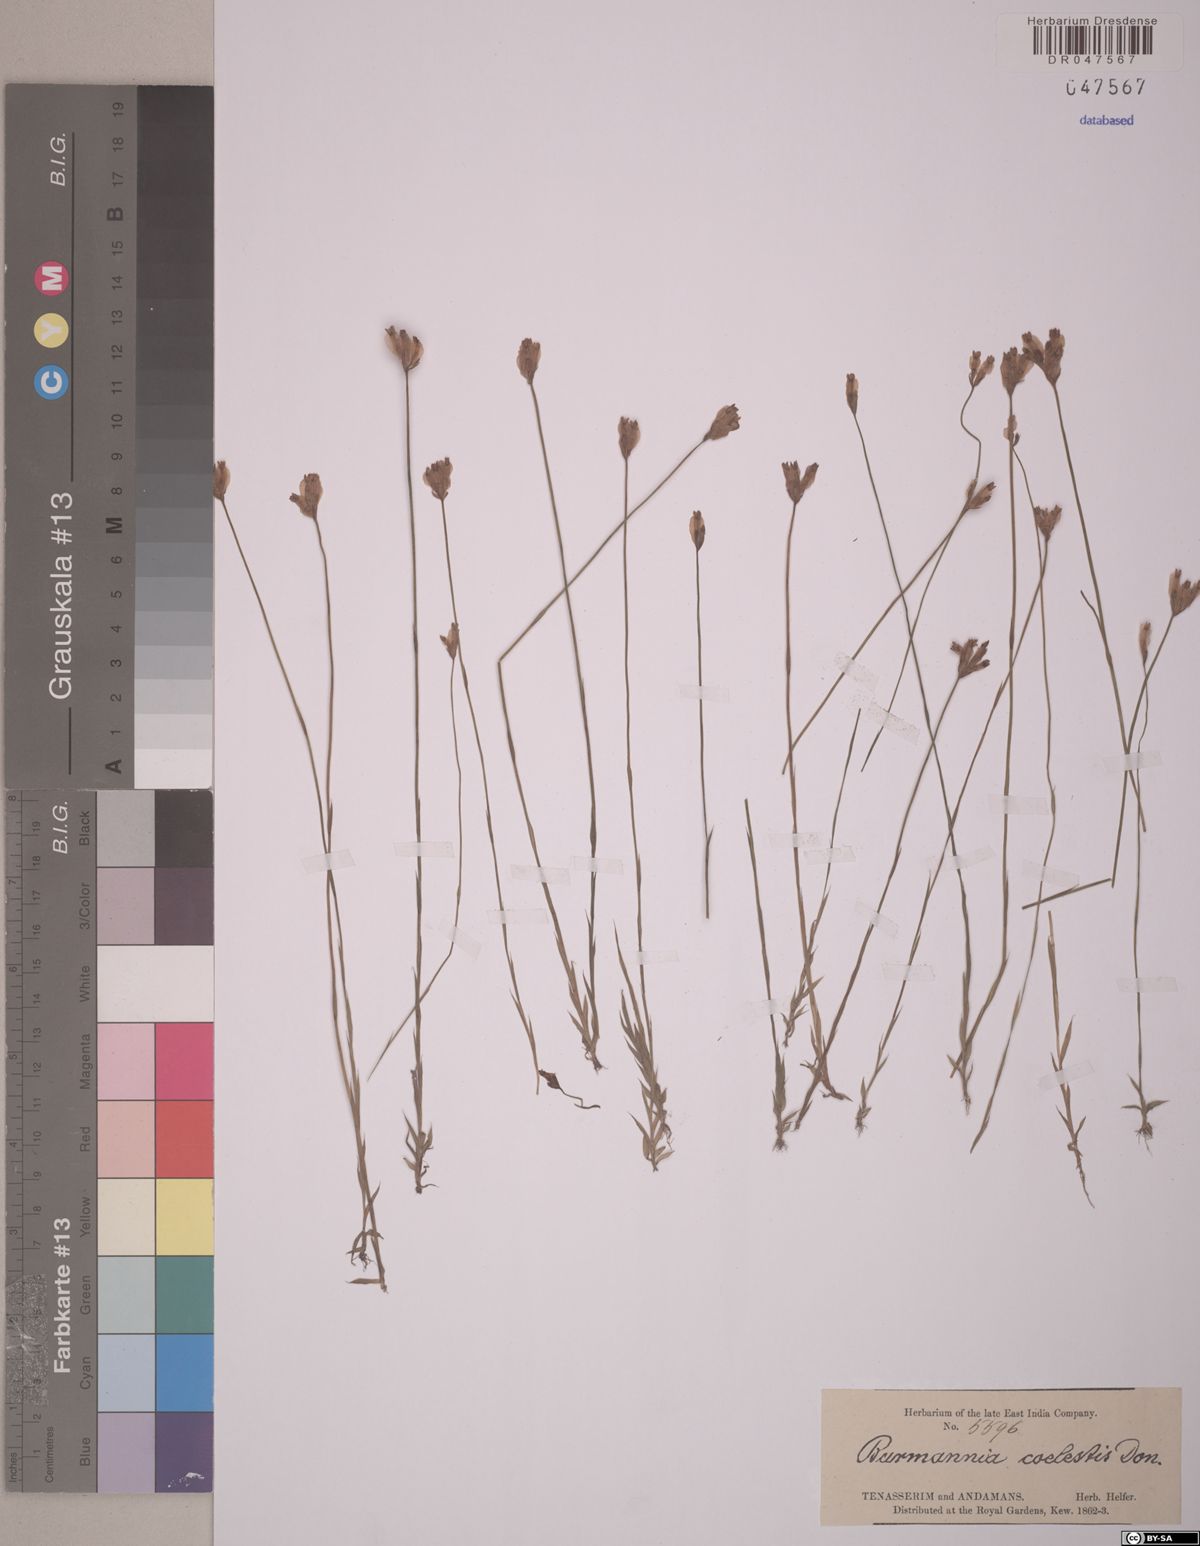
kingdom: Plantae
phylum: Tracheophyta
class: Liliopsida
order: Dioscoreales
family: Burmanniaceae
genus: Burmannia
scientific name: Burmannia coelestis
